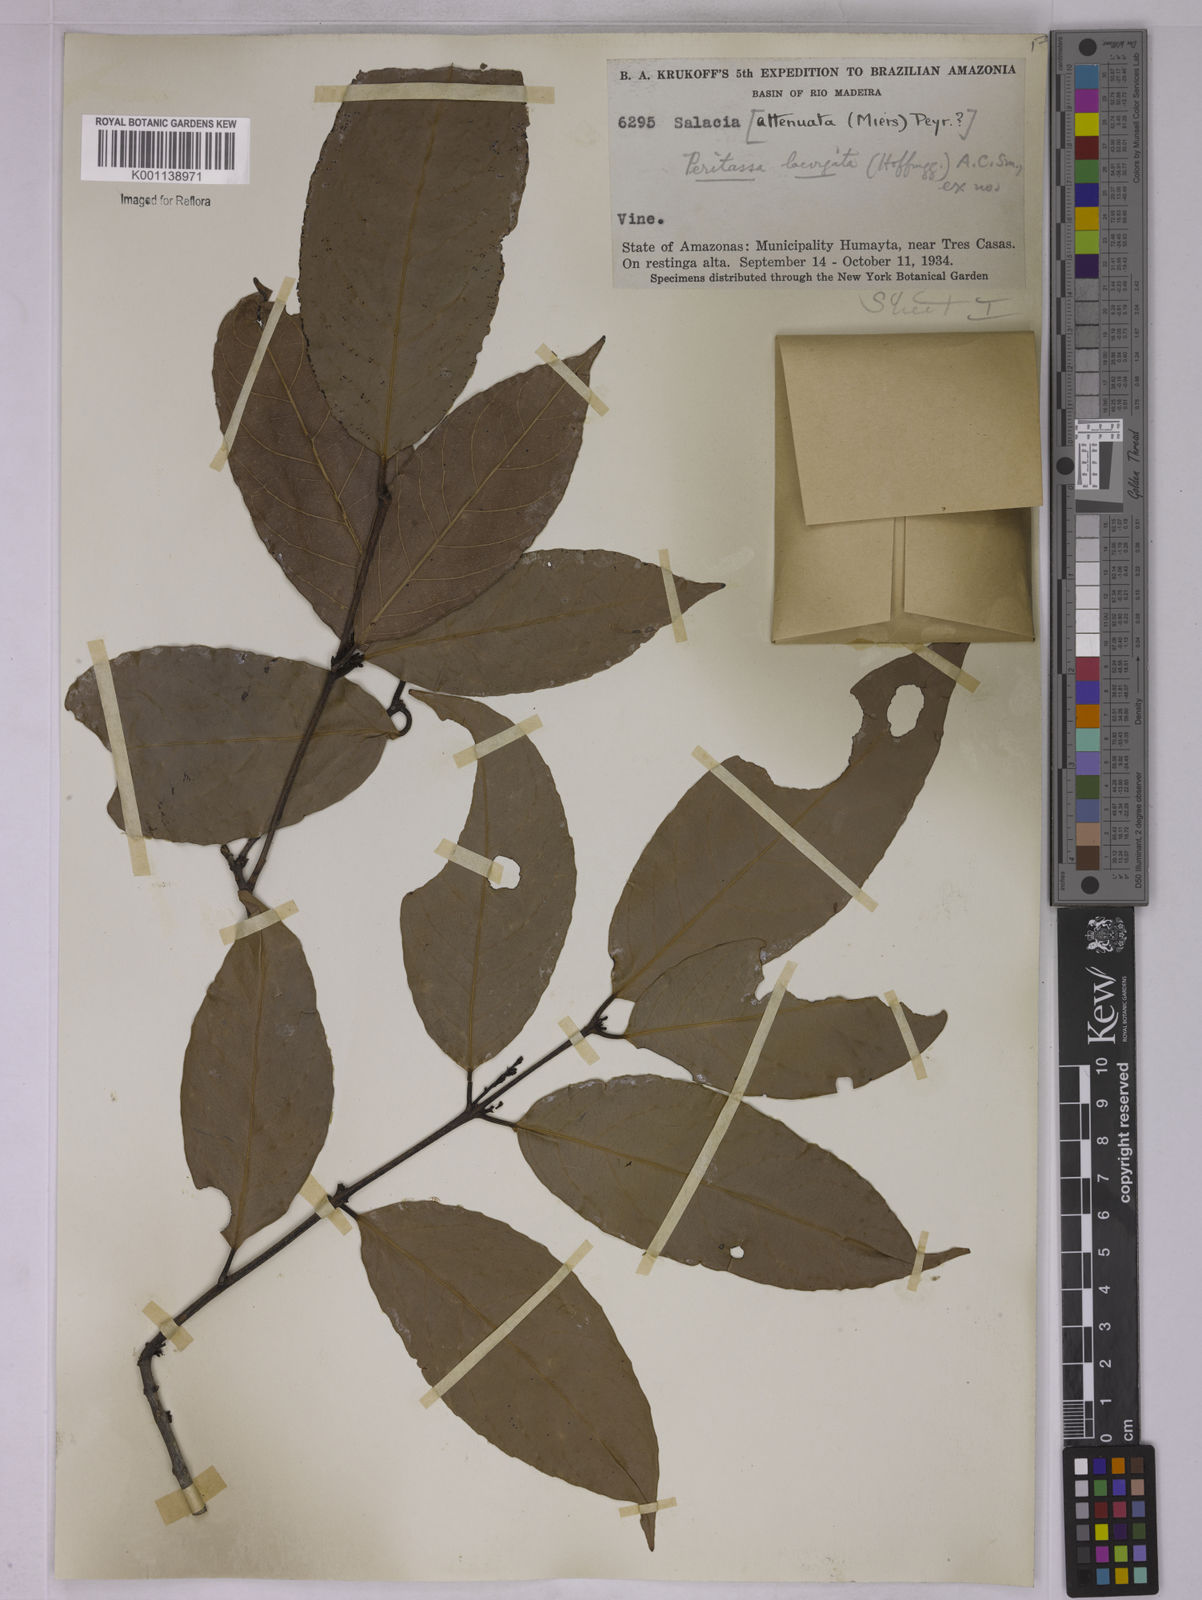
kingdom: Plantae
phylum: Tracheophyta
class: Magnoliopsida
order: Celastrales
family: Celastraceae
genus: Peritassa
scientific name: Peritassa laevigata
